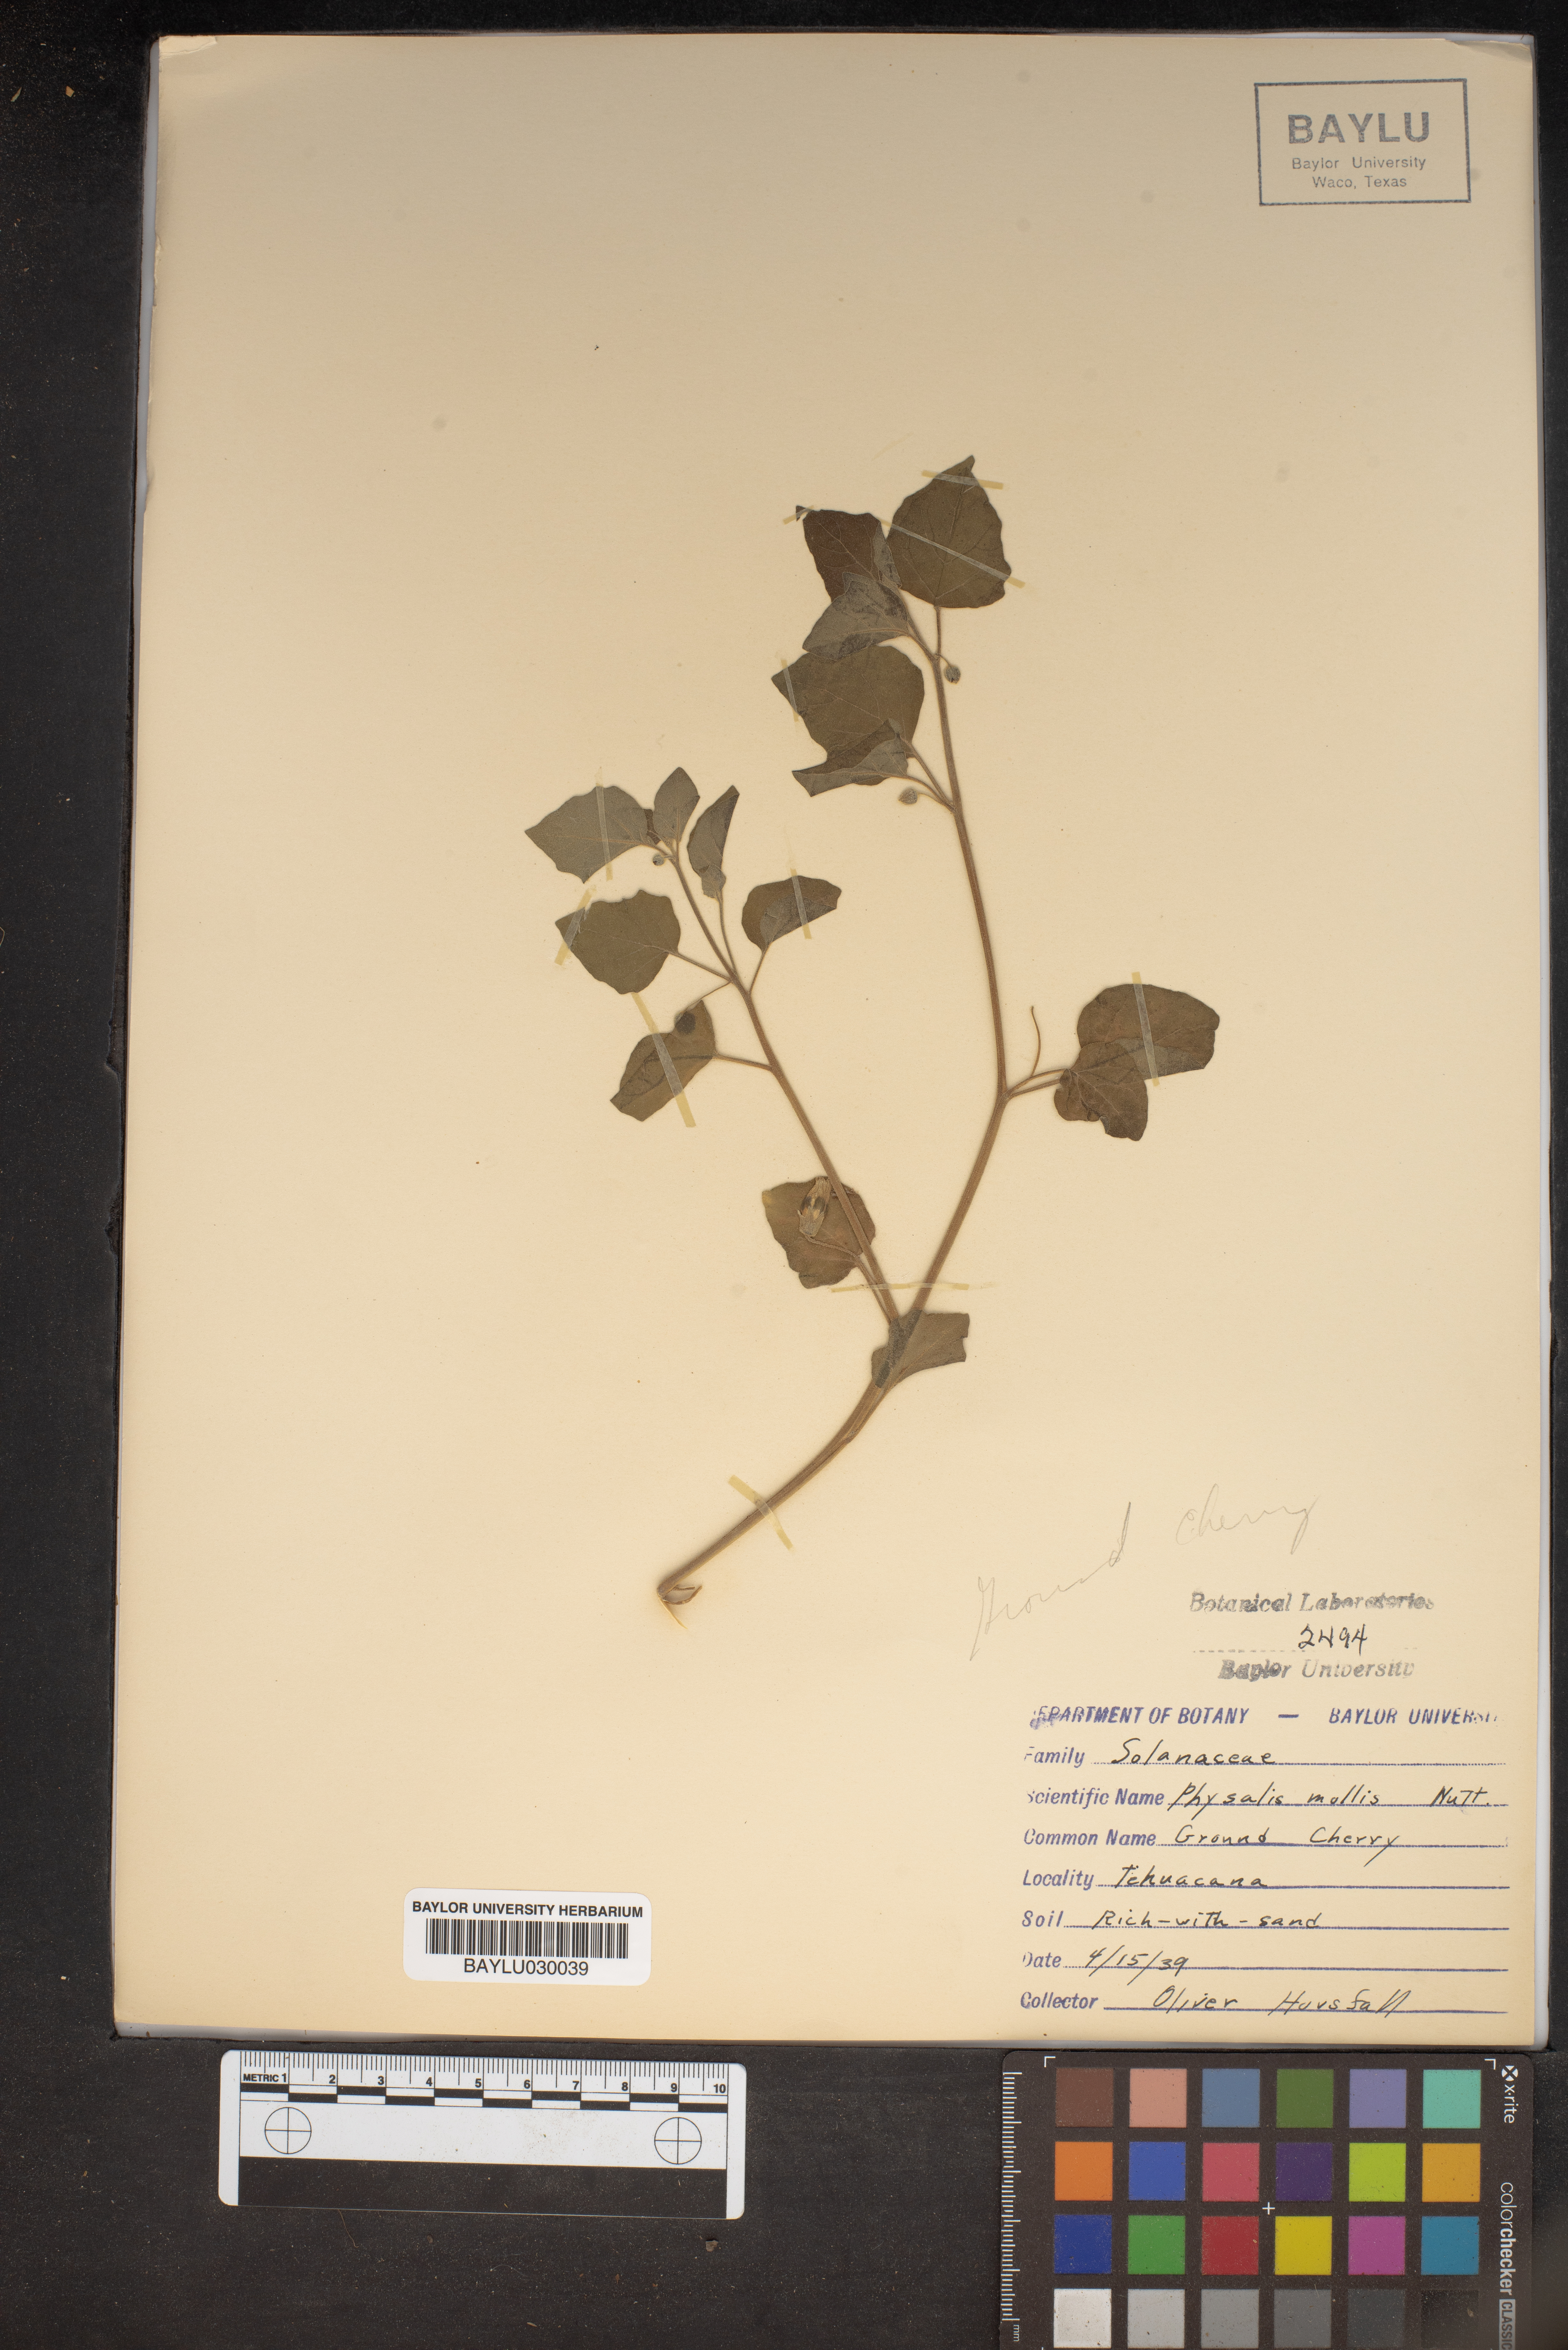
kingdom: Plantae
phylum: Tracheophyta
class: Magnoliopsida
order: Solanales
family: Solanaceae
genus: Physalis
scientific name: Physalis mollis
